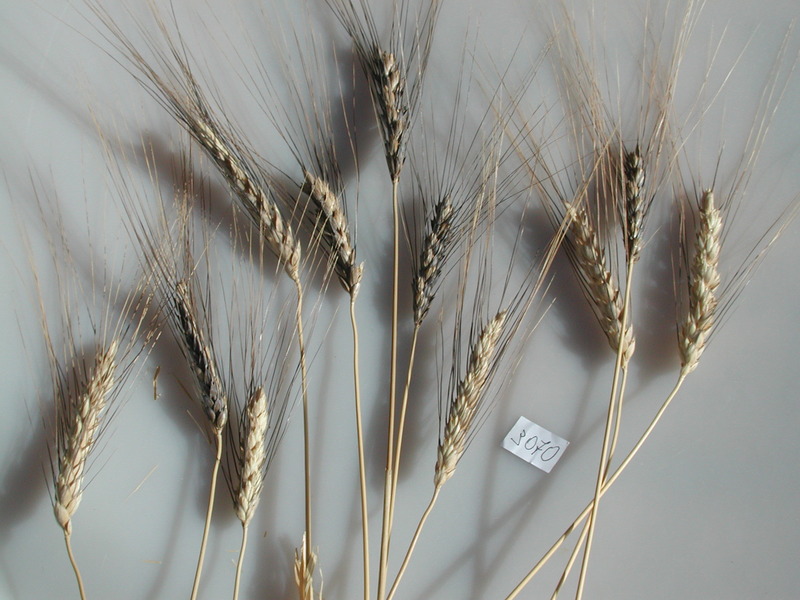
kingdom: Plantae
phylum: Tracheophyta
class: Liliopsida
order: Poales
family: Poaceae
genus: Triticum
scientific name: Triticum turgidum
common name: Wheat
